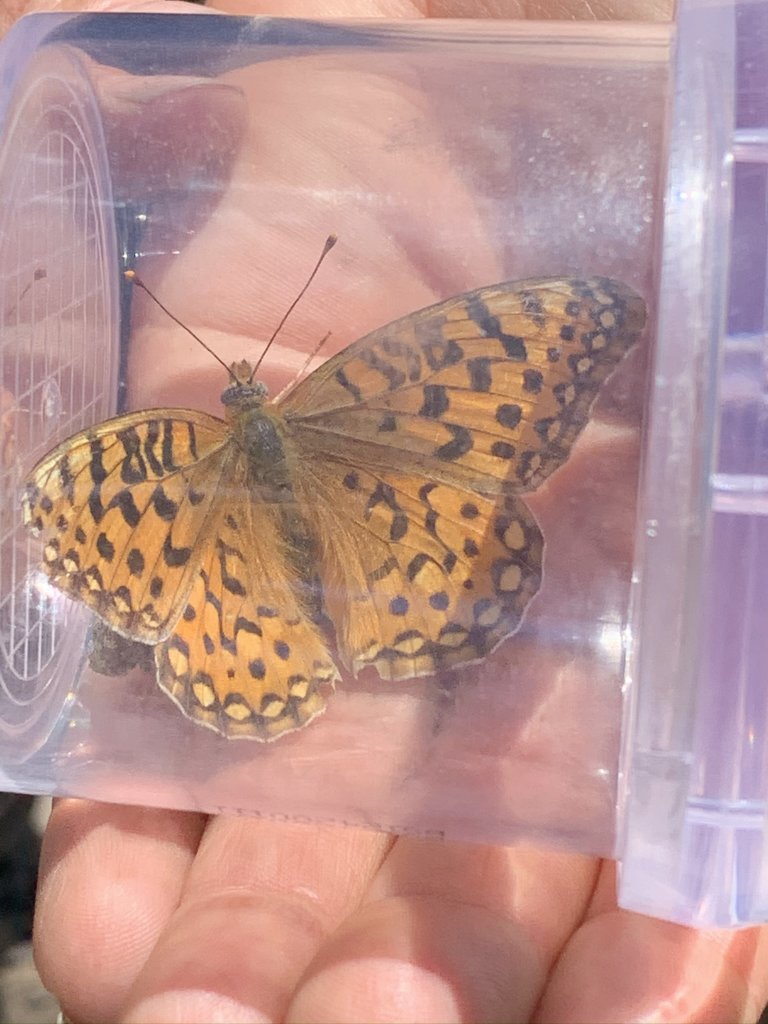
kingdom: Animalia
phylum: Arthropoda
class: Insecta
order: Lepidoptera
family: Nymphalidae
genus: Speyeria
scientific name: Speyeria coronis
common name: Coronis Fritillary
